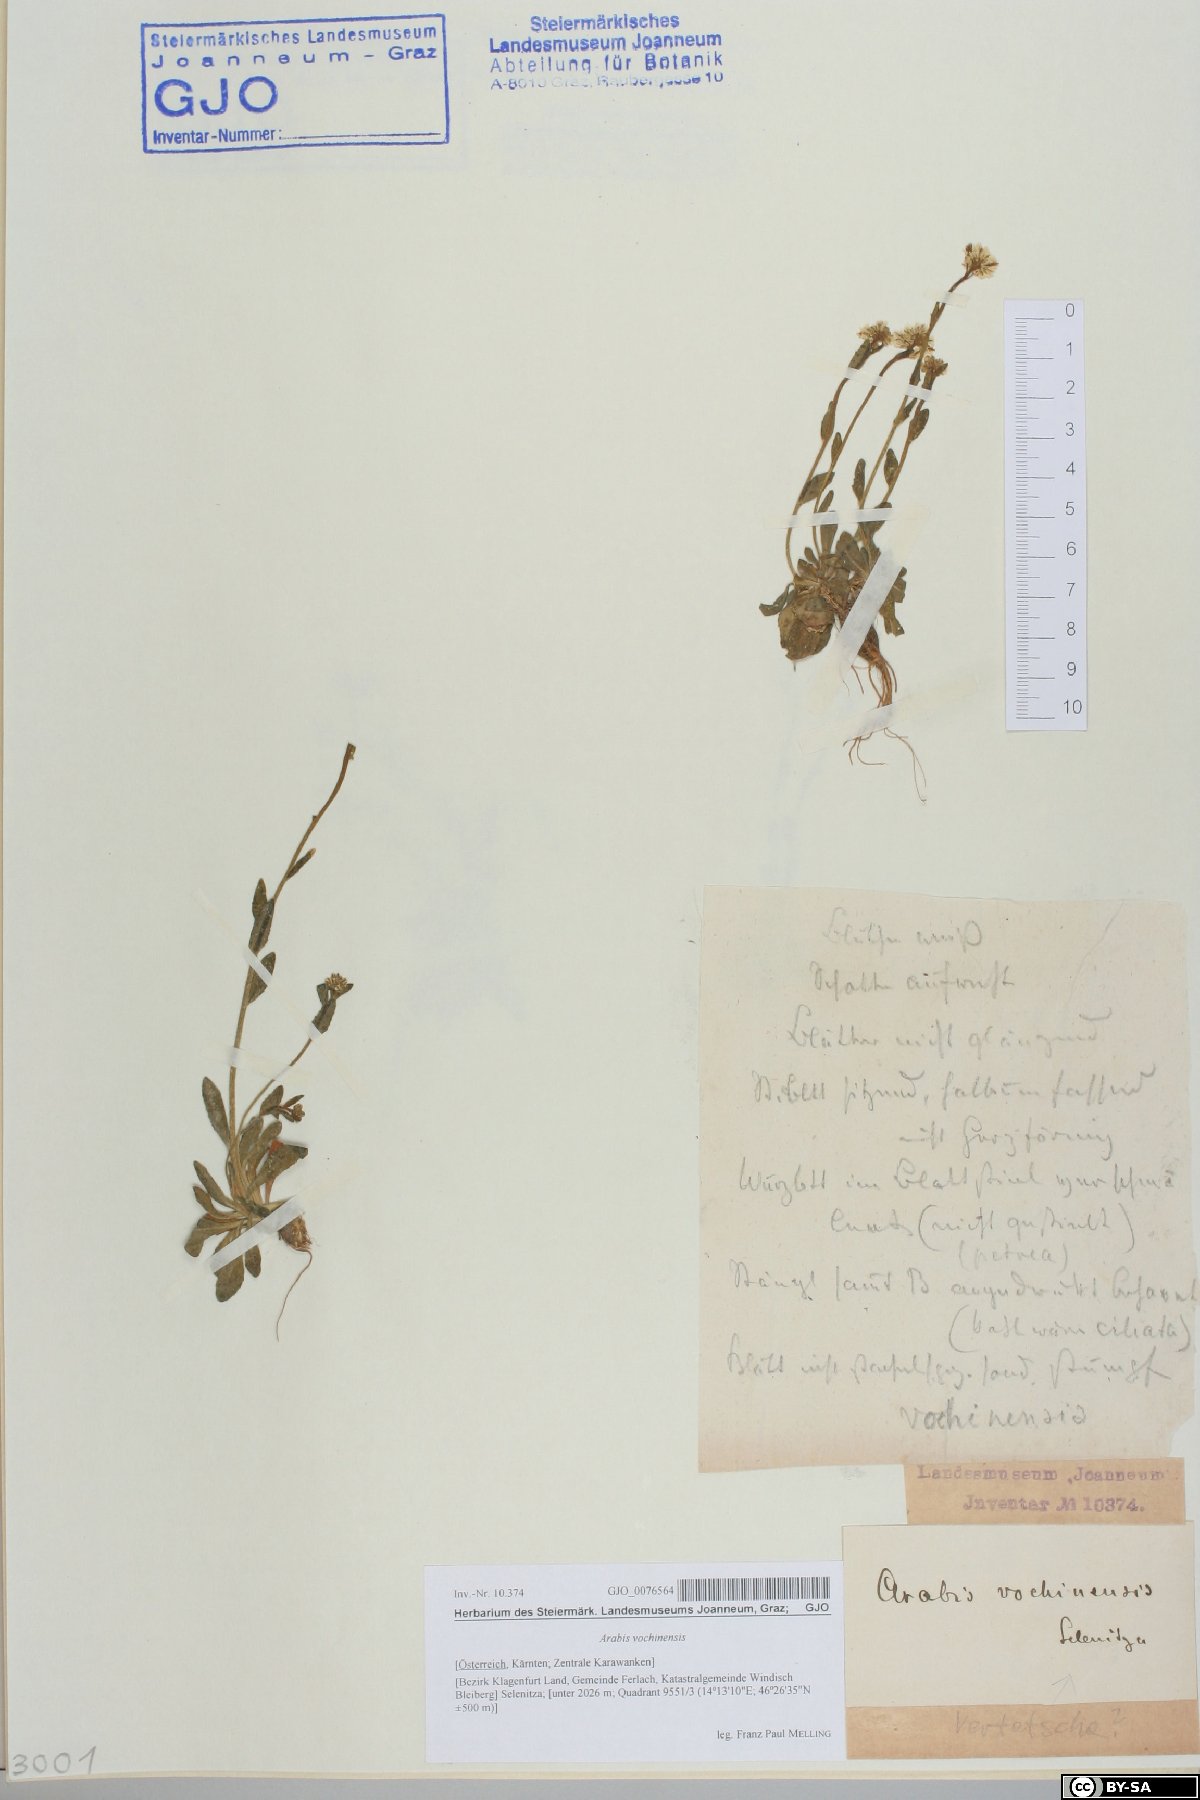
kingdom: Plantae
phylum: Tracheophyta
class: Magnoliopsida
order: Brassicales
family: Brassicaceae
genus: Arabis
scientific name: Arabis vochinensis
